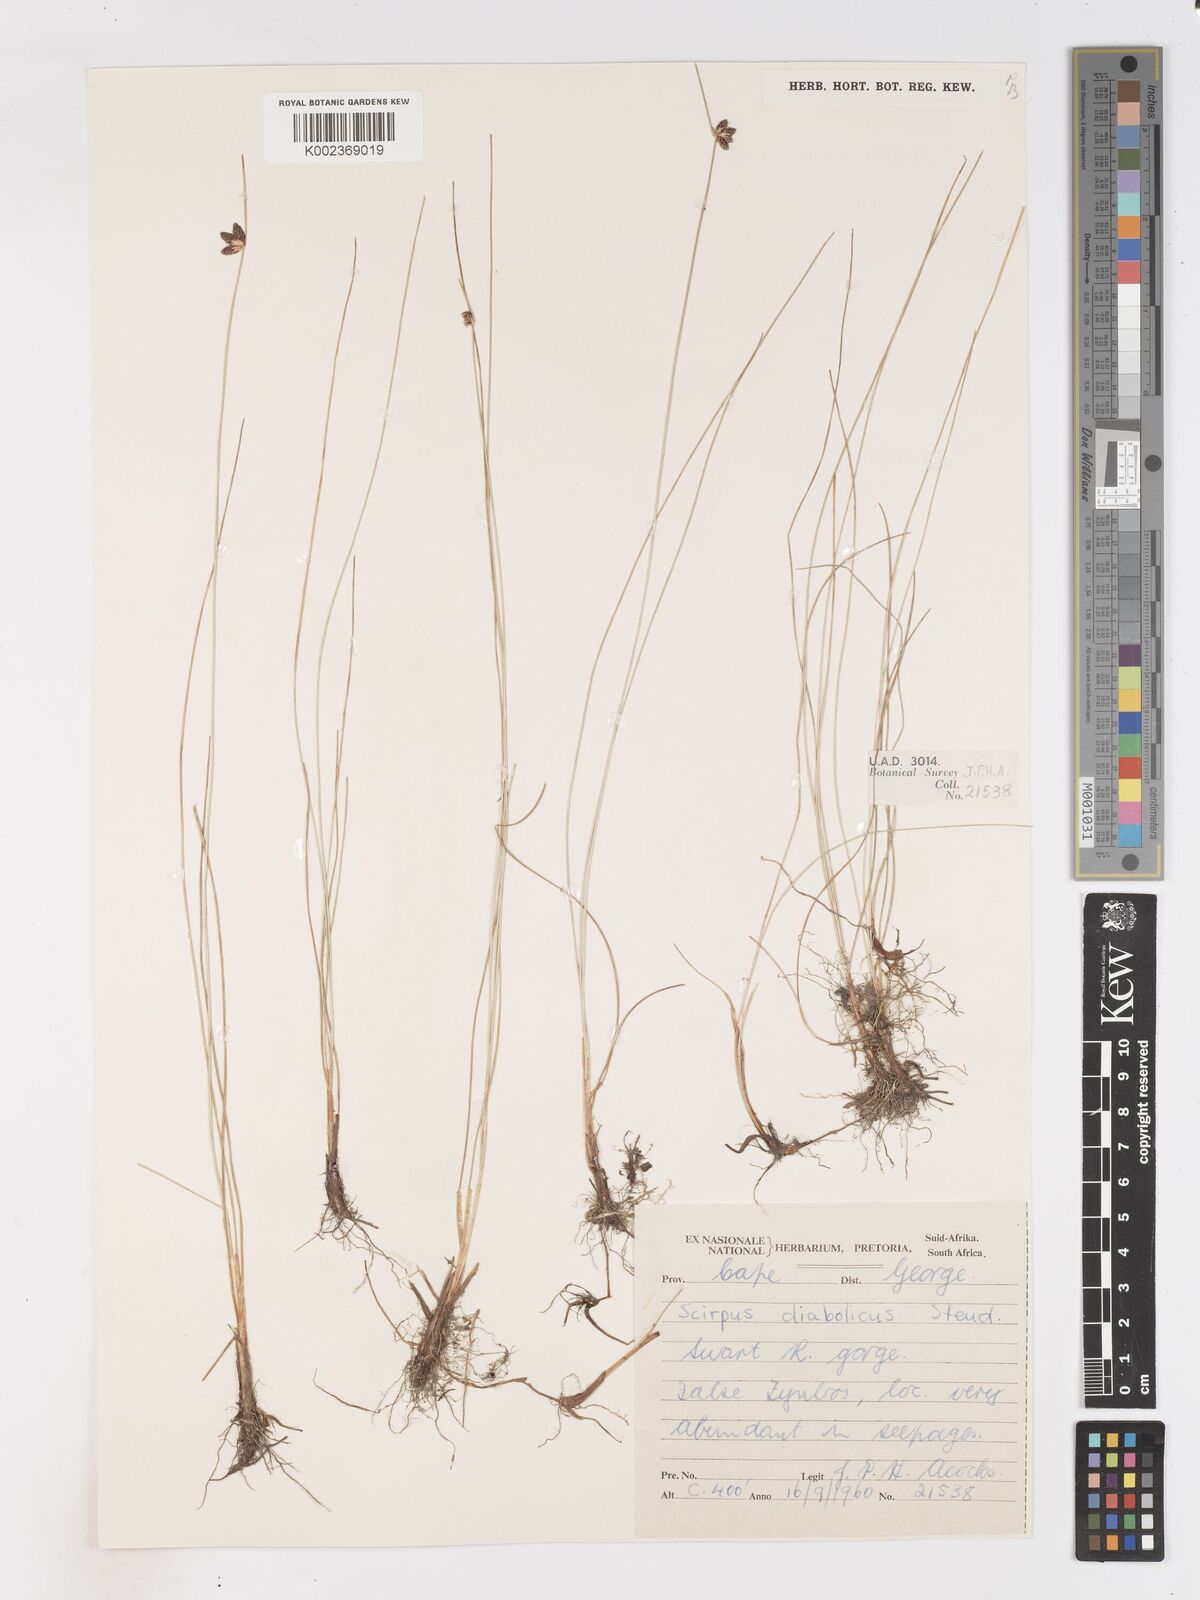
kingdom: Plantae
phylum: Tracheophyta
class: Liliopsida
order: Poales
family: Cyperaceae
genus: Isolepis
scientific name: Isolepis diabolica
